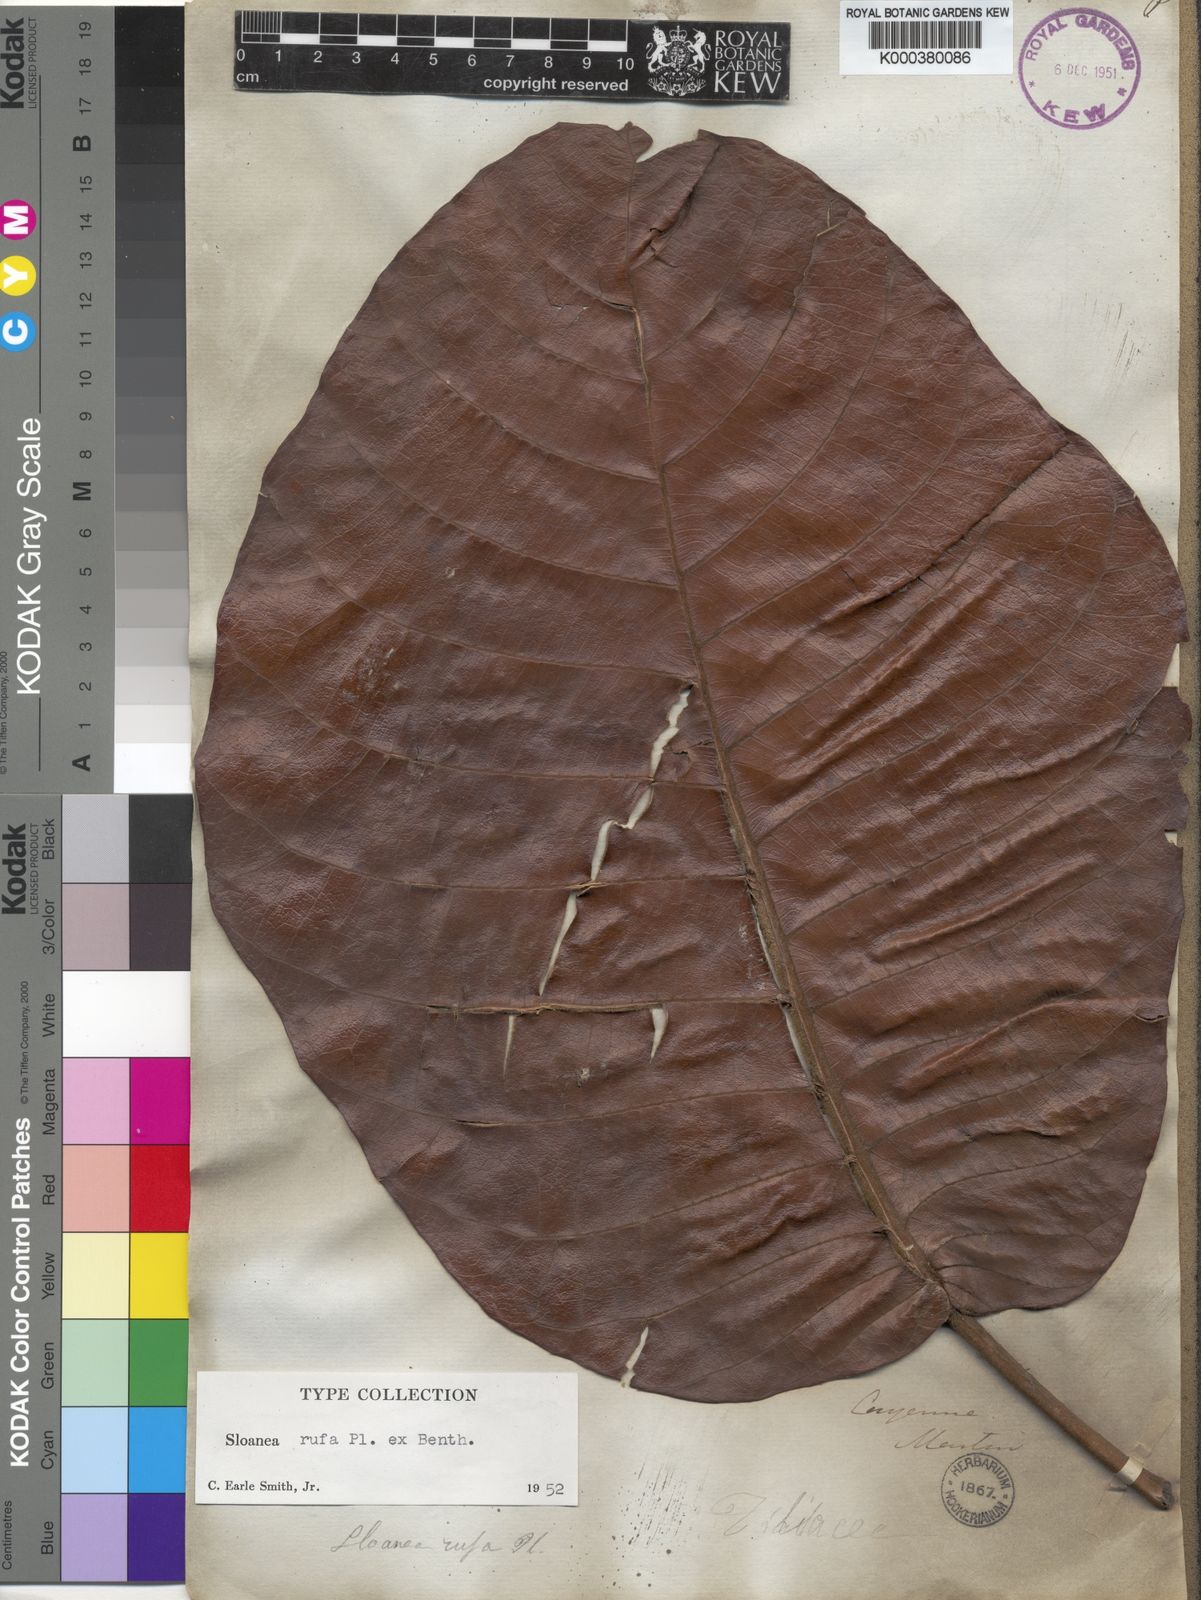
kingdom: Plantae
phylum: Tracheophyta
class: Magnoliopsida
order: Oxalidales
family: Elaeocarpaceae
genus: Sloanea
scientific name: Sloanea rufa
